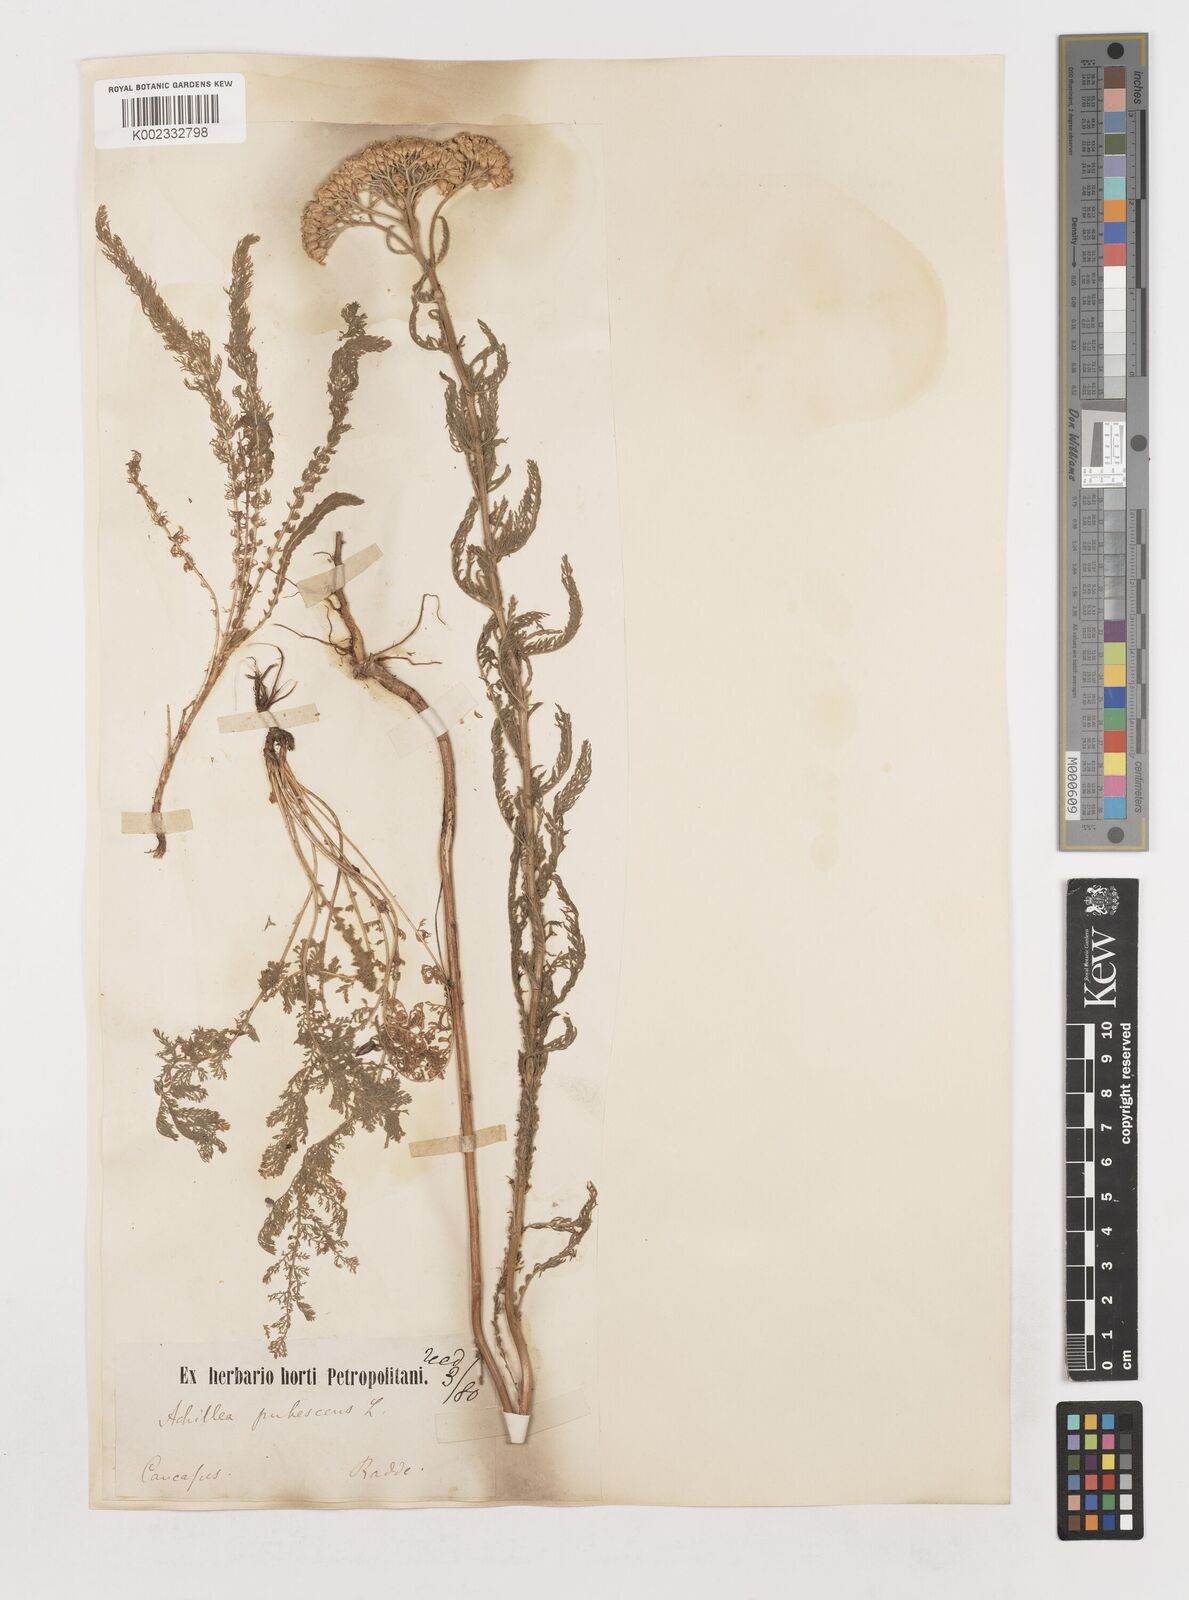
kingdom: Plantae
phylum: Tracheophyta
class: Magnoliopsida
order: Asterales
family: Asteraceae
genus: Achillea
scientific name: Achillea arabica
